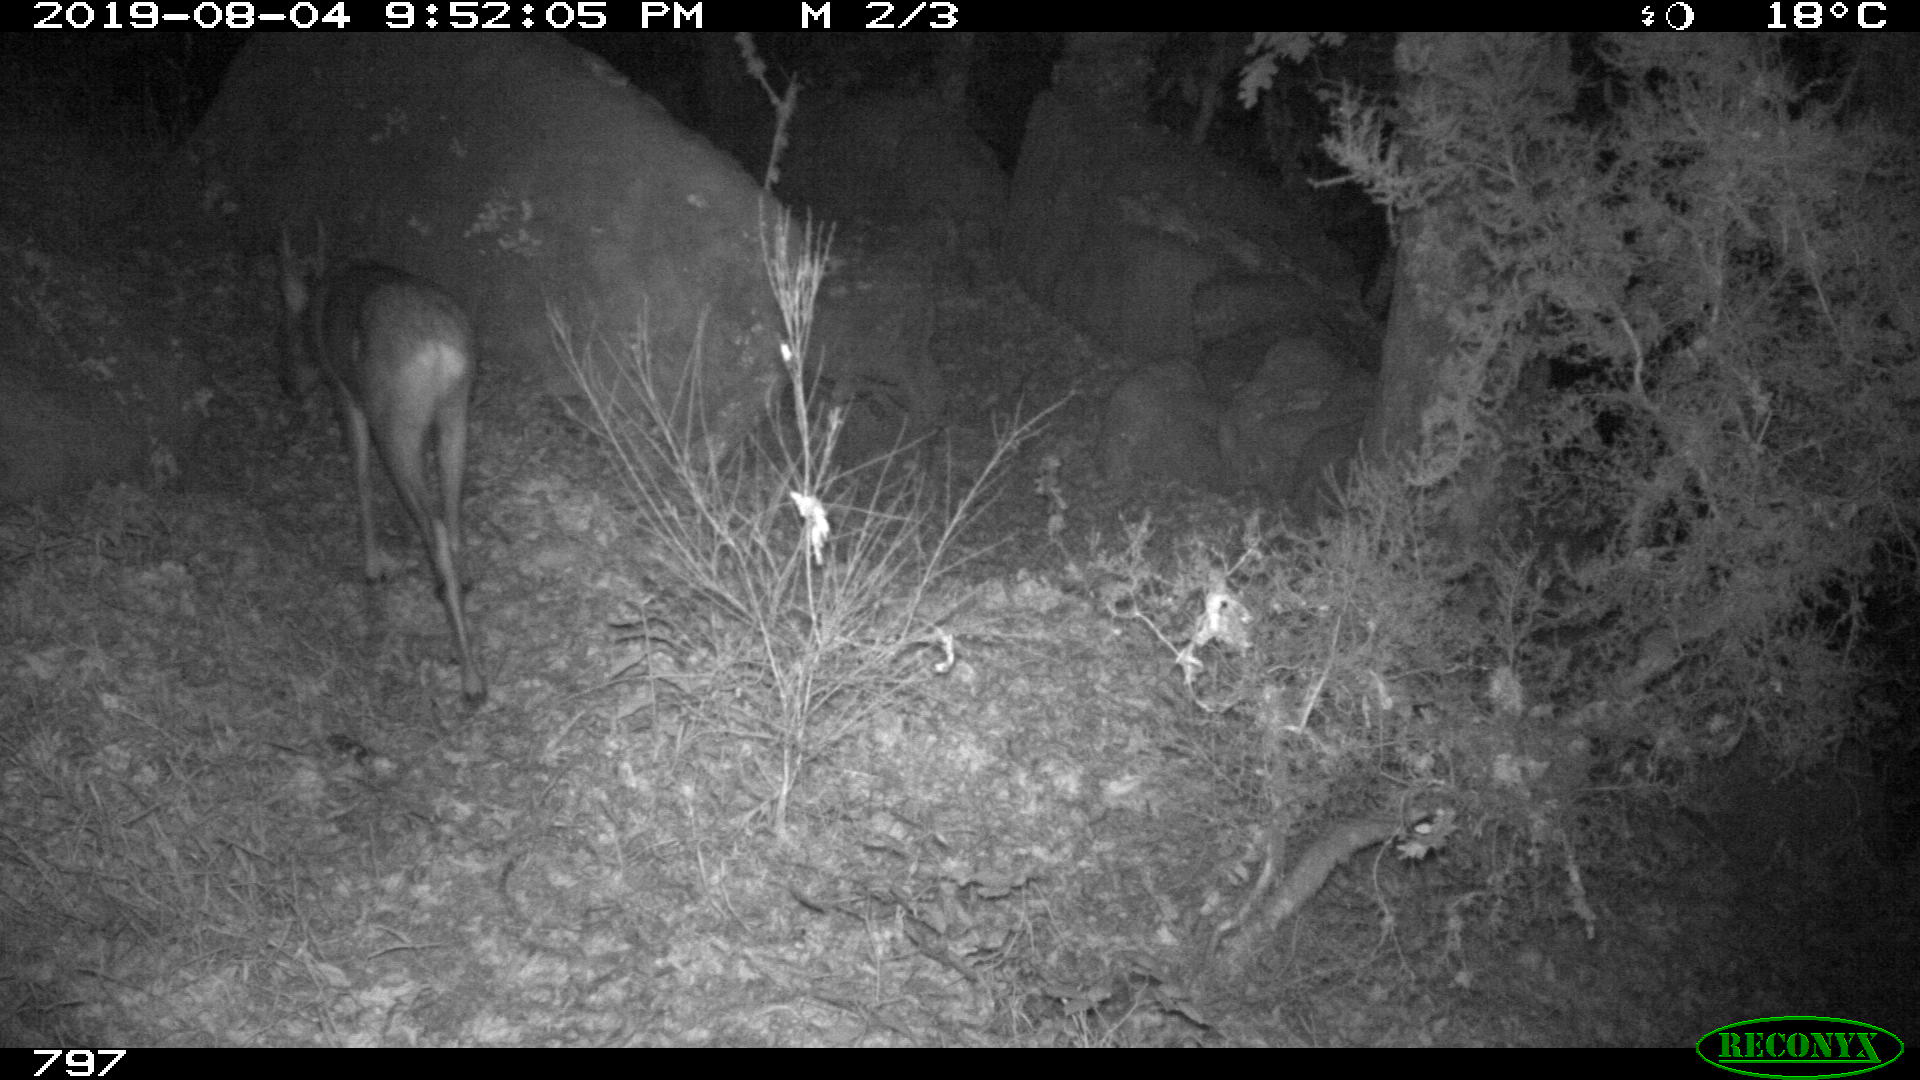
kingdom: Animalia
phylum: Chordata
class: Mammalia
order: Artiodactyla
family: Cervidae
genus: Capreolus
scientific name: Capreolus capreolus
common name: Western roe deer
